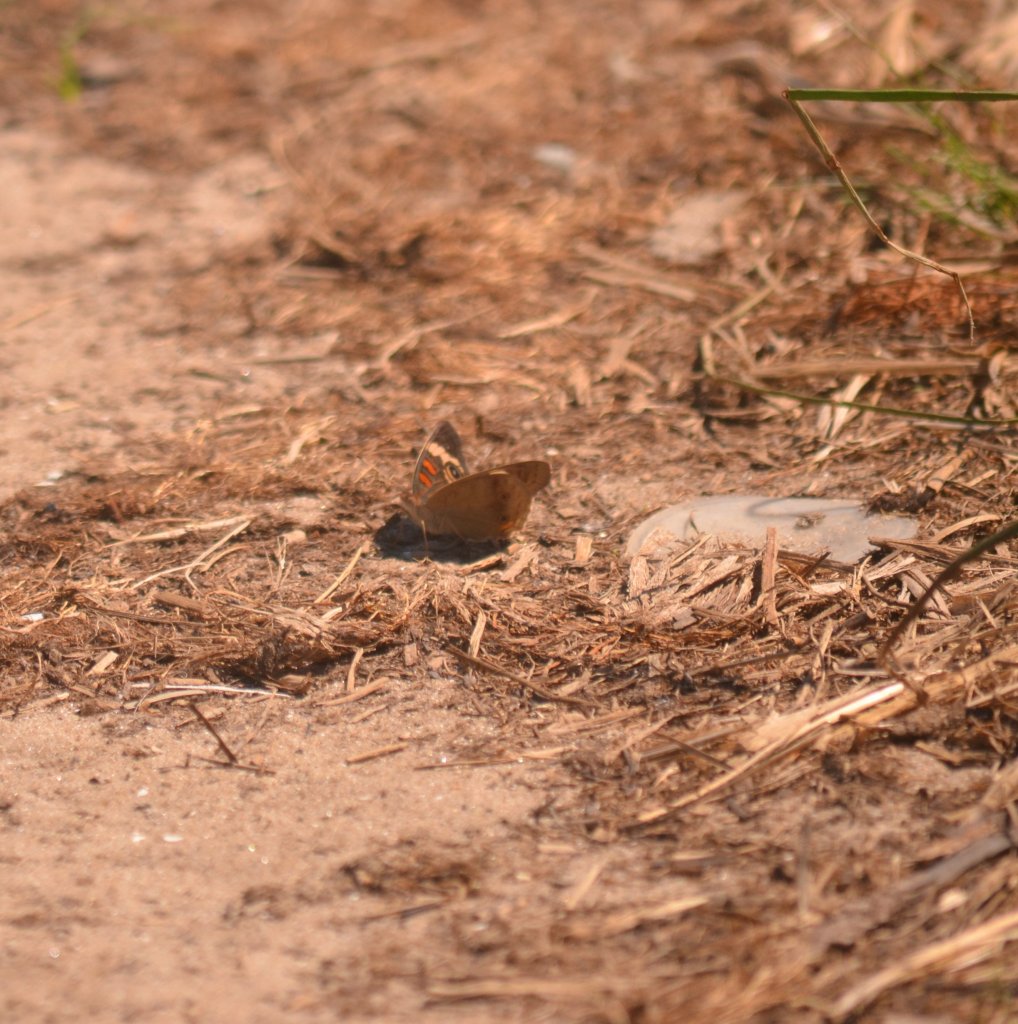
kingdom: Animalia
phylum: Arthropoda
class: Insecta
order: Lepidoptera
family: Nymphalidae
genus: Junonia
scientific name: Junonia coenia
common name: Common Buckeye
